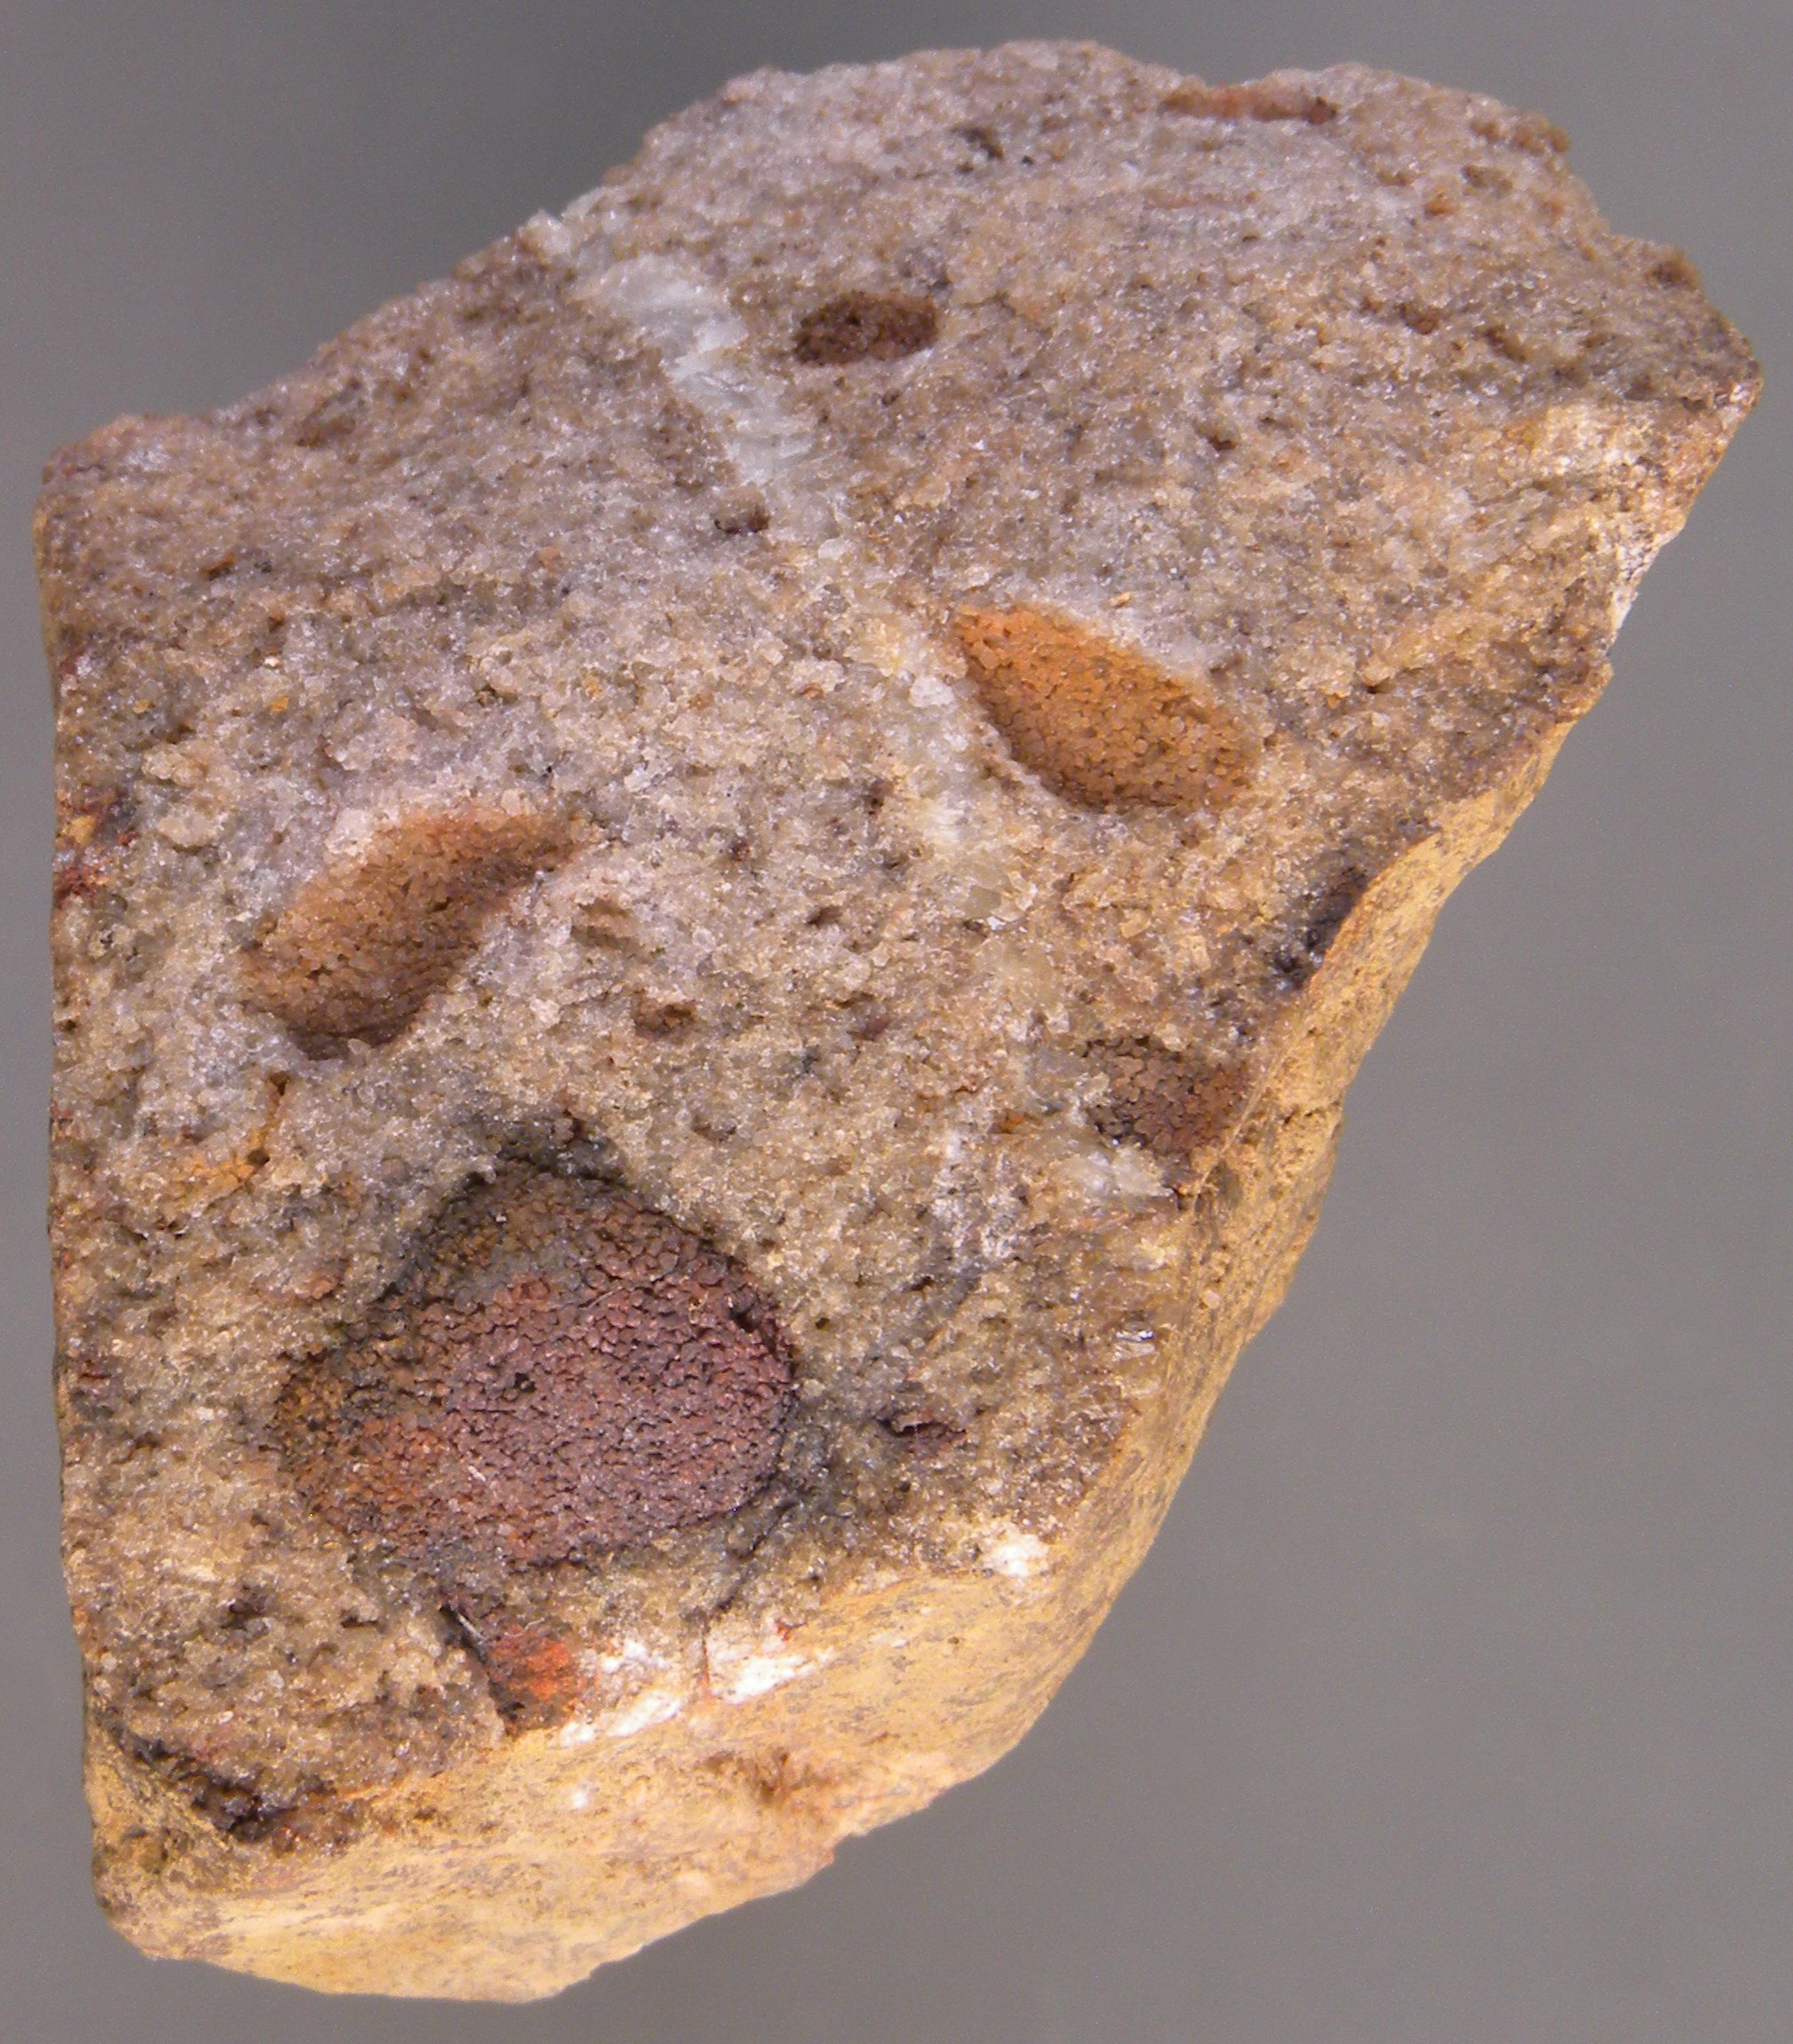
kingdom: Animalia
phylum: Mollusca
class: Bivalvia
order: Nuculanida
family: Malletiidae
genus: Palaeoneilo
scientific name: Palaeoneilo
